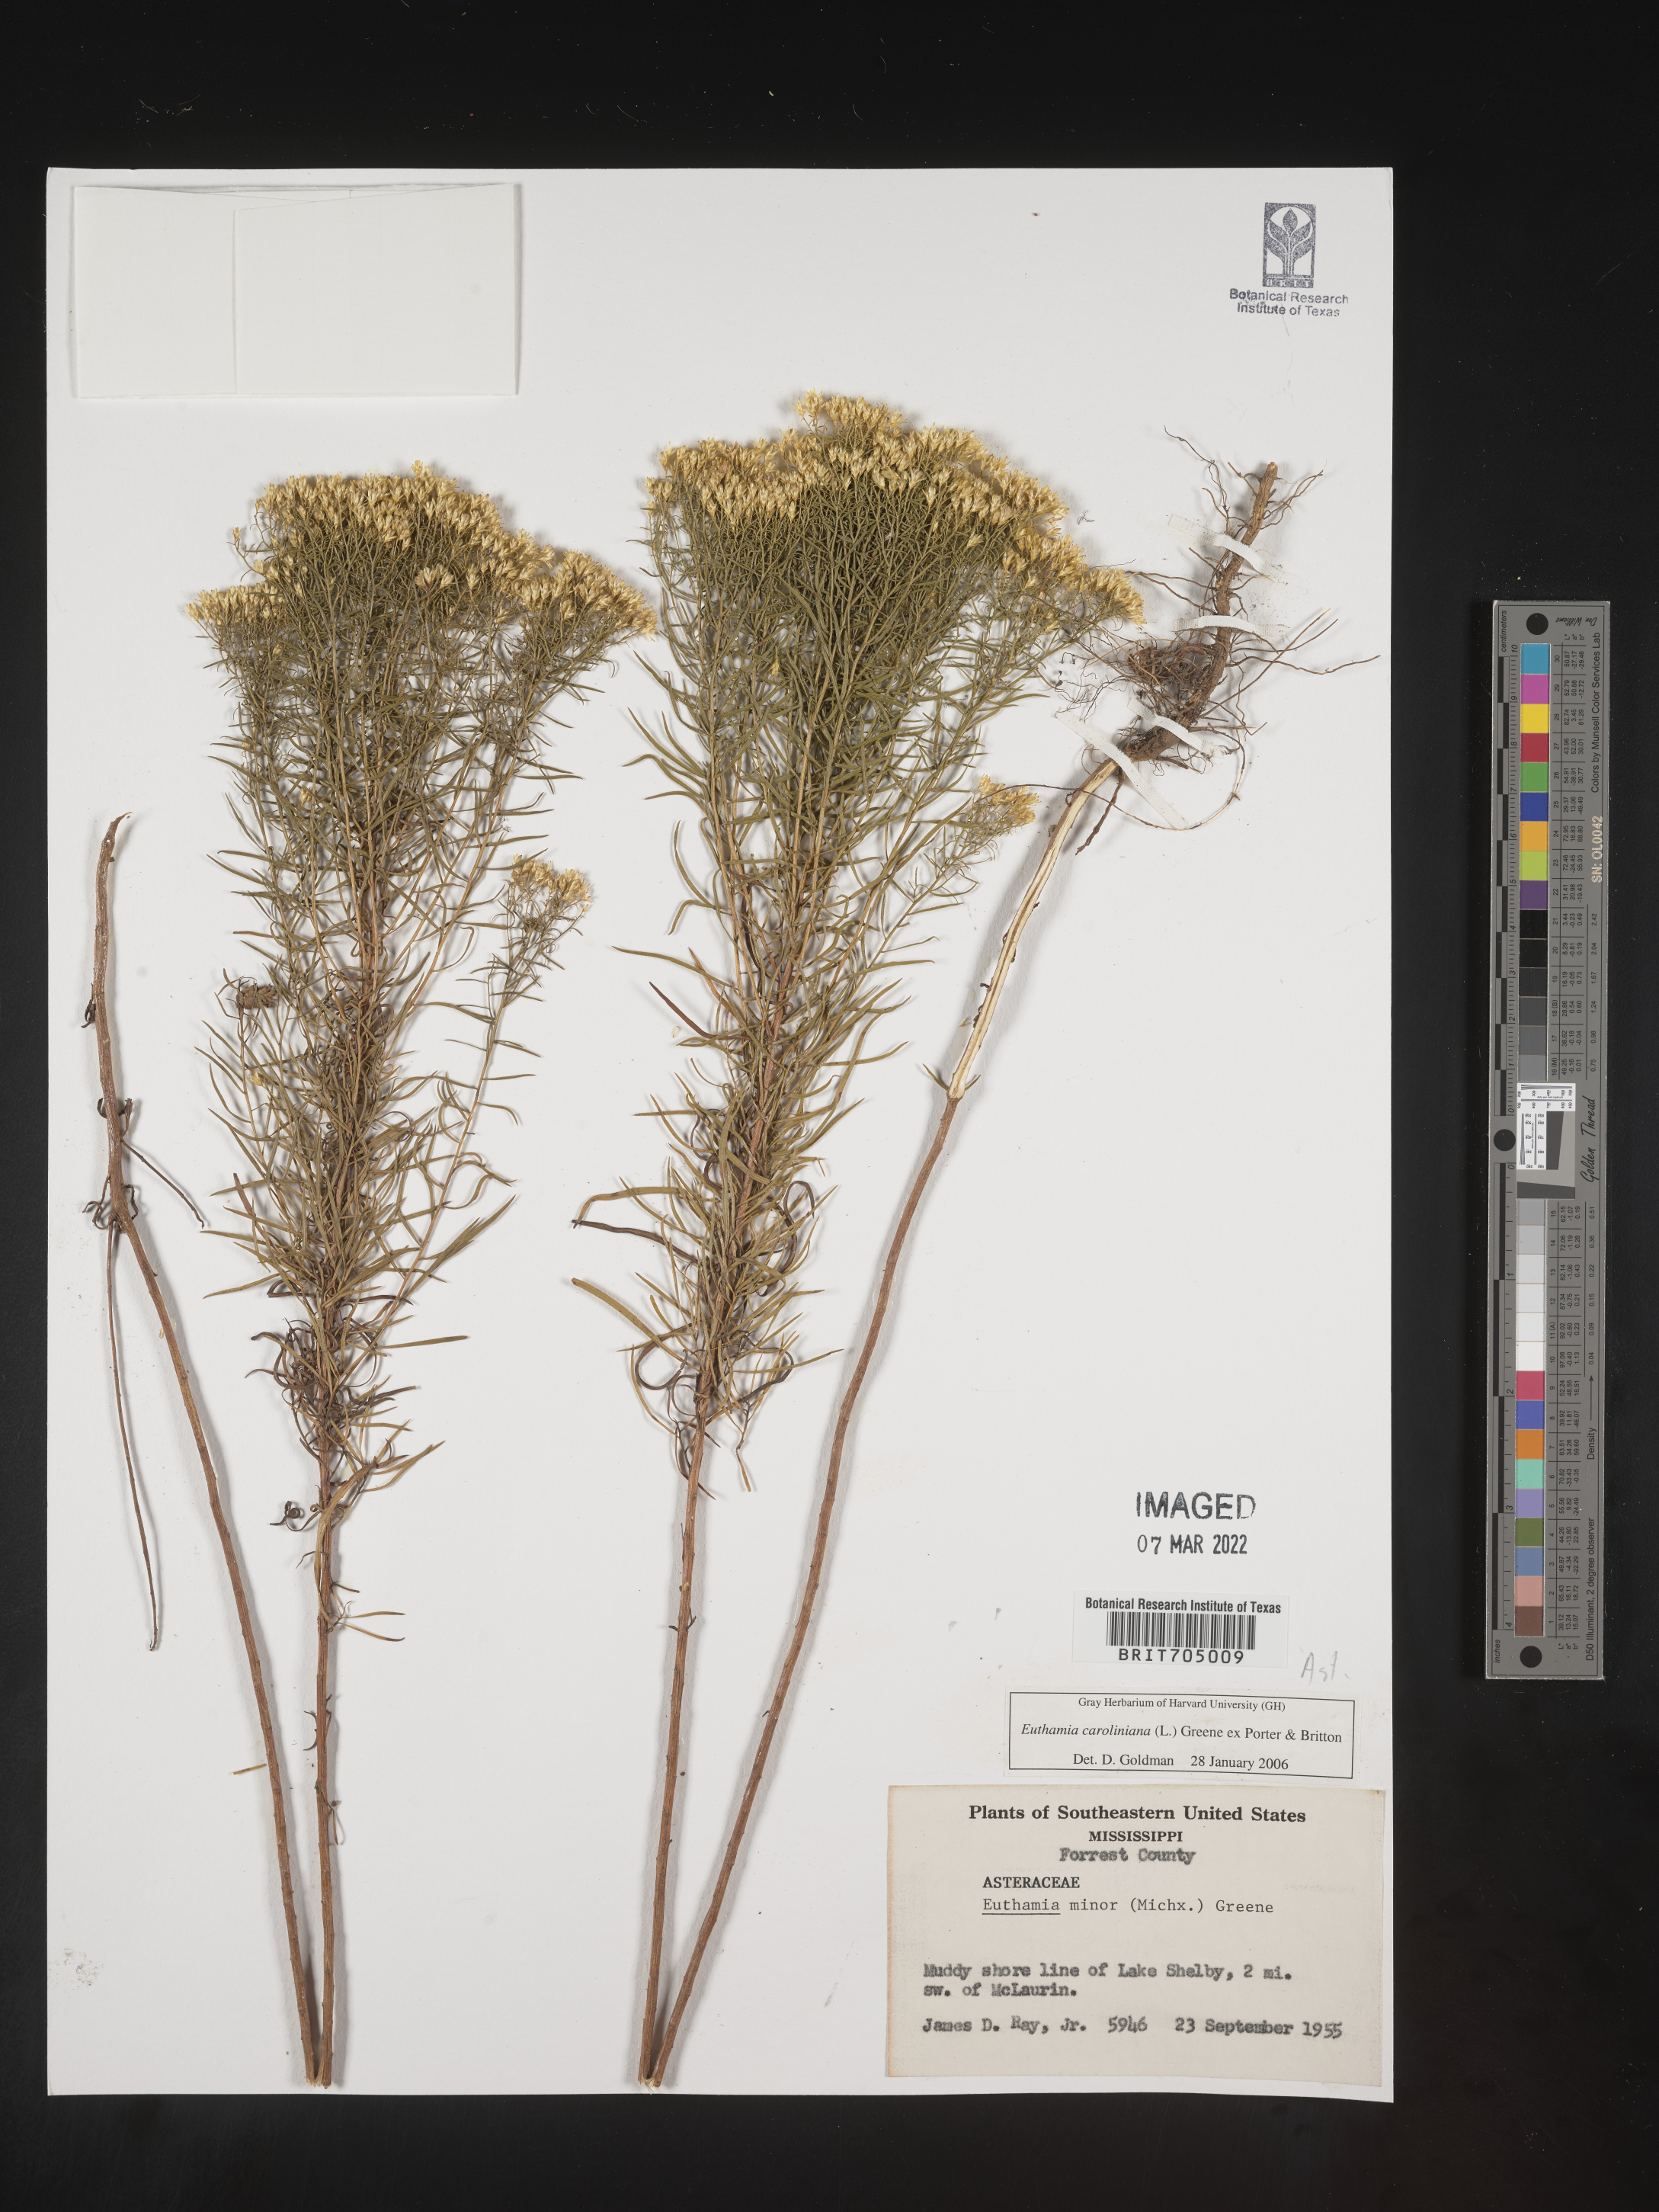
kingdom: Plantae
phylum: Tracheophyta
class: Magnoliopsida
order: Asterales
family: Asteraceae
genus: Euthamia
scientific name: Euthamia caroliniana
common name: Coastal plain goldentop
